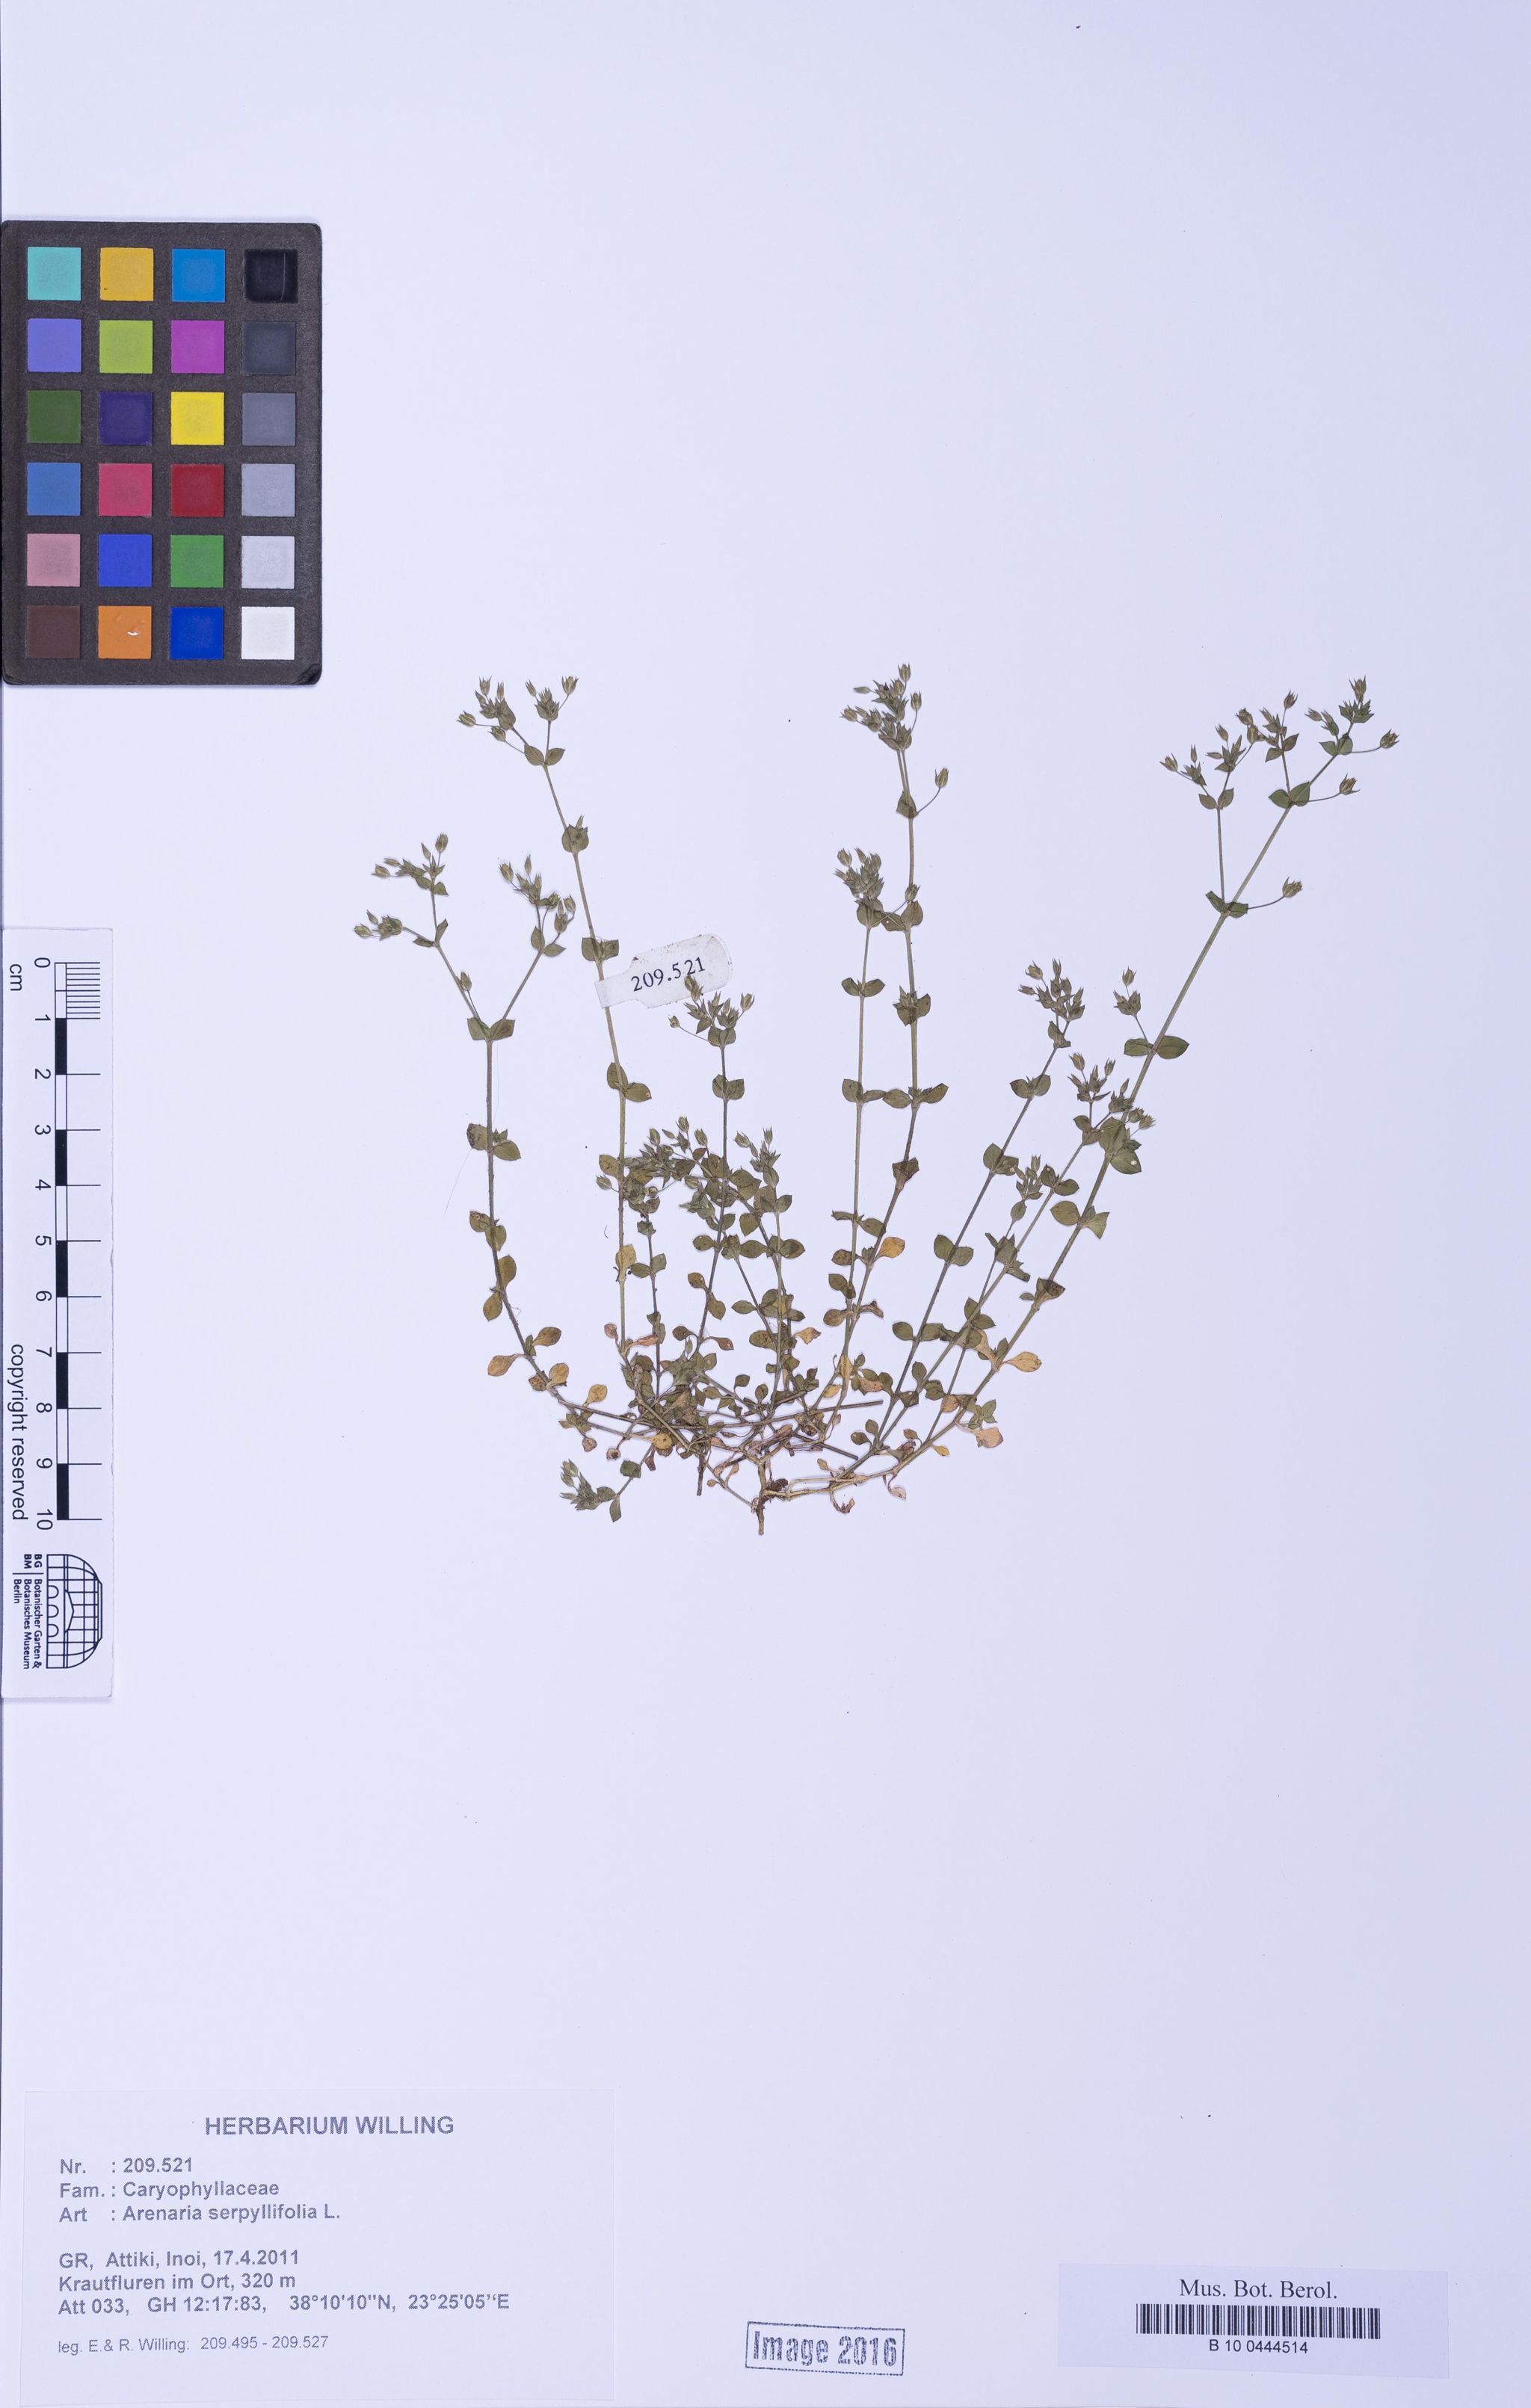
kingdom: Plantae
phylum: Tracheophyta
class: Magnoliopsida
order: Caryophyllales
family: Caryophyllaceae
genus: Arenaria
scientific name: Arenaria serpyllifolia
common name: Thyme-leaved sandwort
